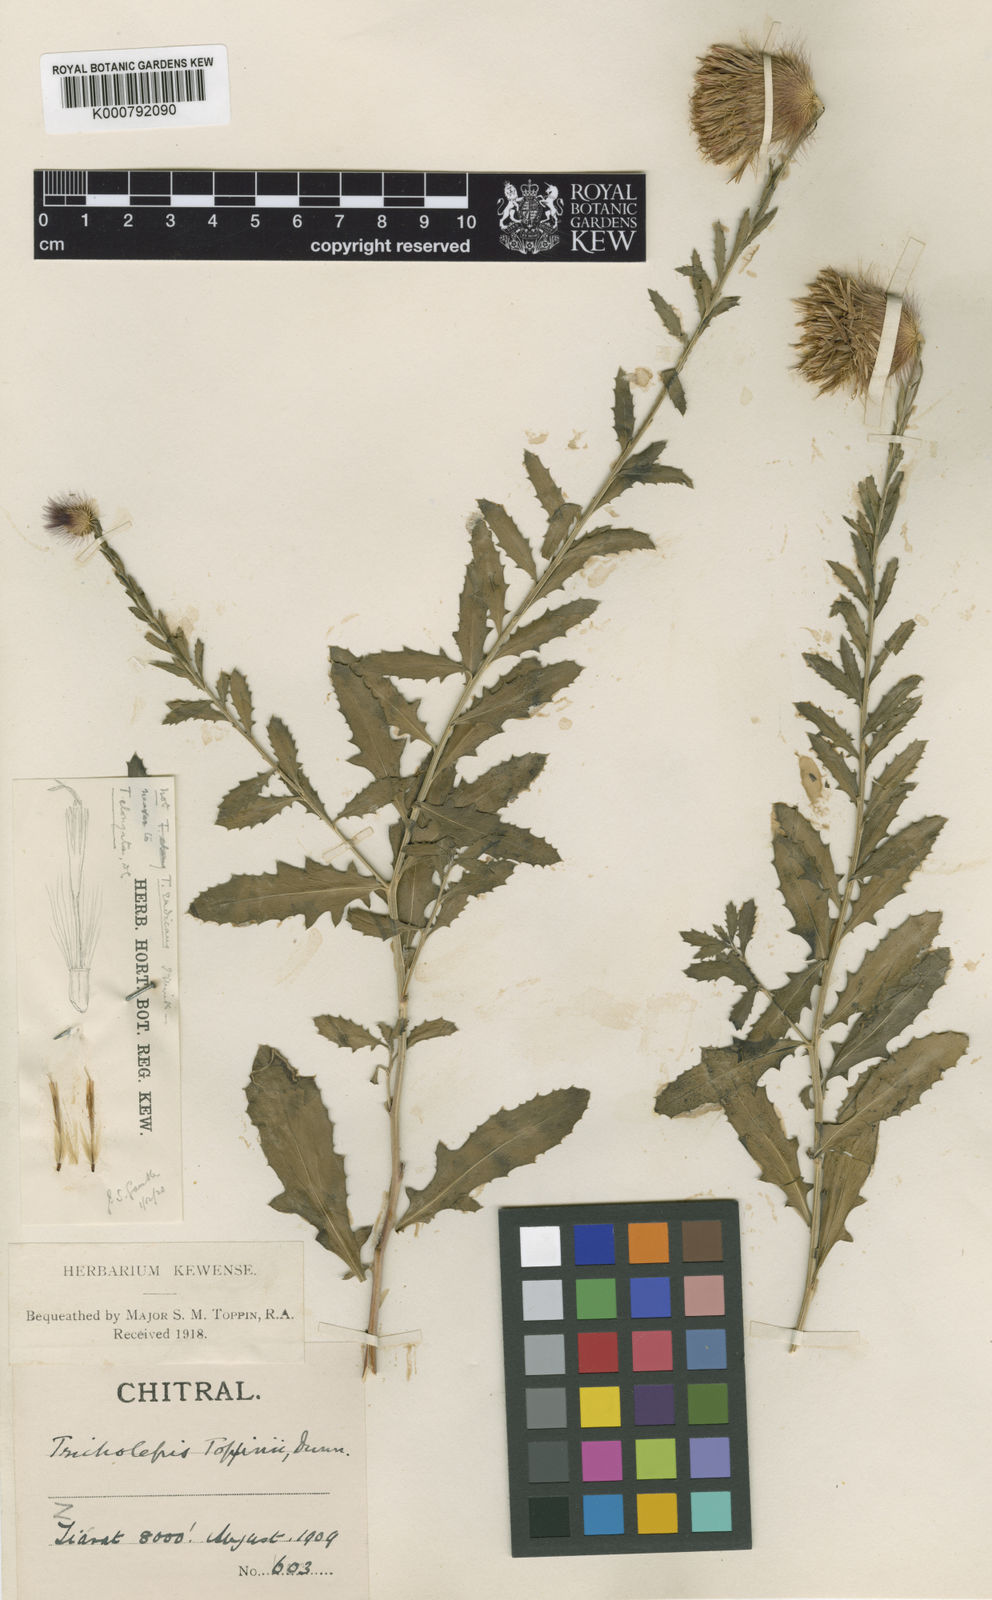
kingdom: Plantae
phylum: Tracheophyta
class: Magnoliopsida
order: Asterales
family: Asteraceae
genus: Tricholepis
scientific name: Tricholepis chaetolepis
